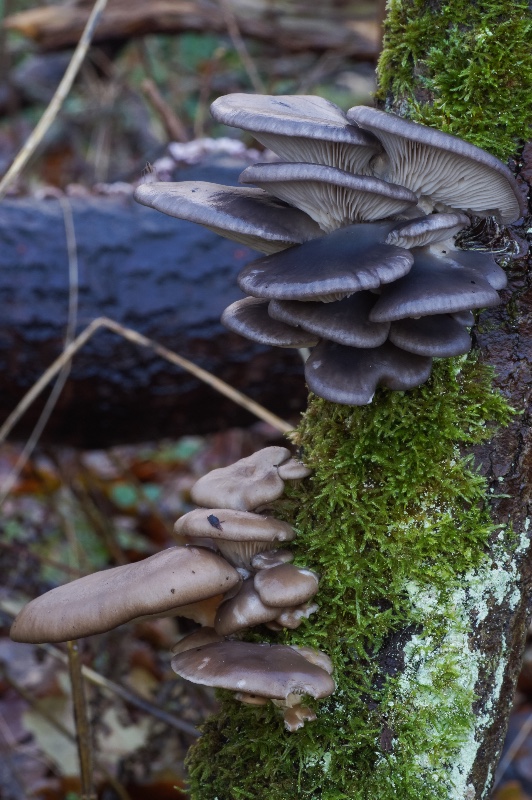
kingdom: Fungi
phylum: Basidiomycota
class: Agaricomycetes
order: Agaricales
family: Pleurotaceae
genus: Pleurotus
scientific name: Pleurotus ostreatus
